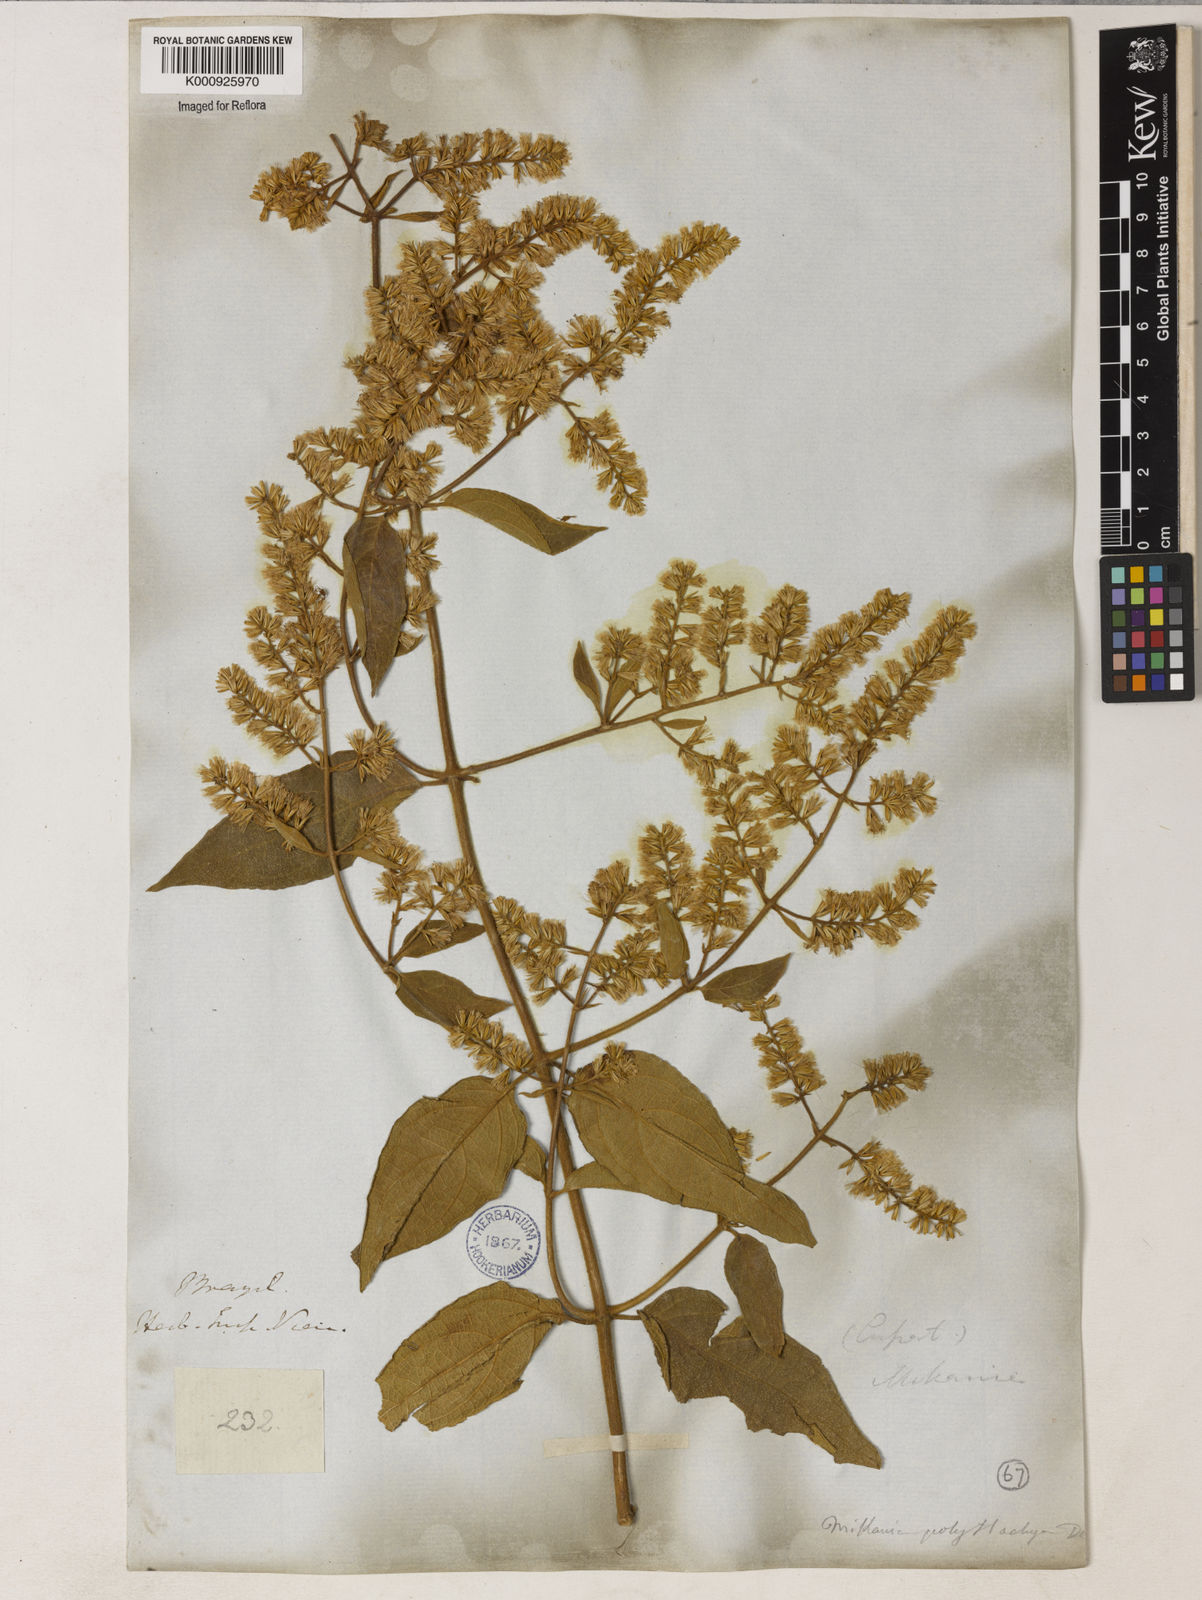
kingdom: Plantae
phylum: Tracheophyta
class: Magnoliopsida
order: Asterales
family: Asteraceae
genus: Mikania
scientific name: Mikania psilostachya
